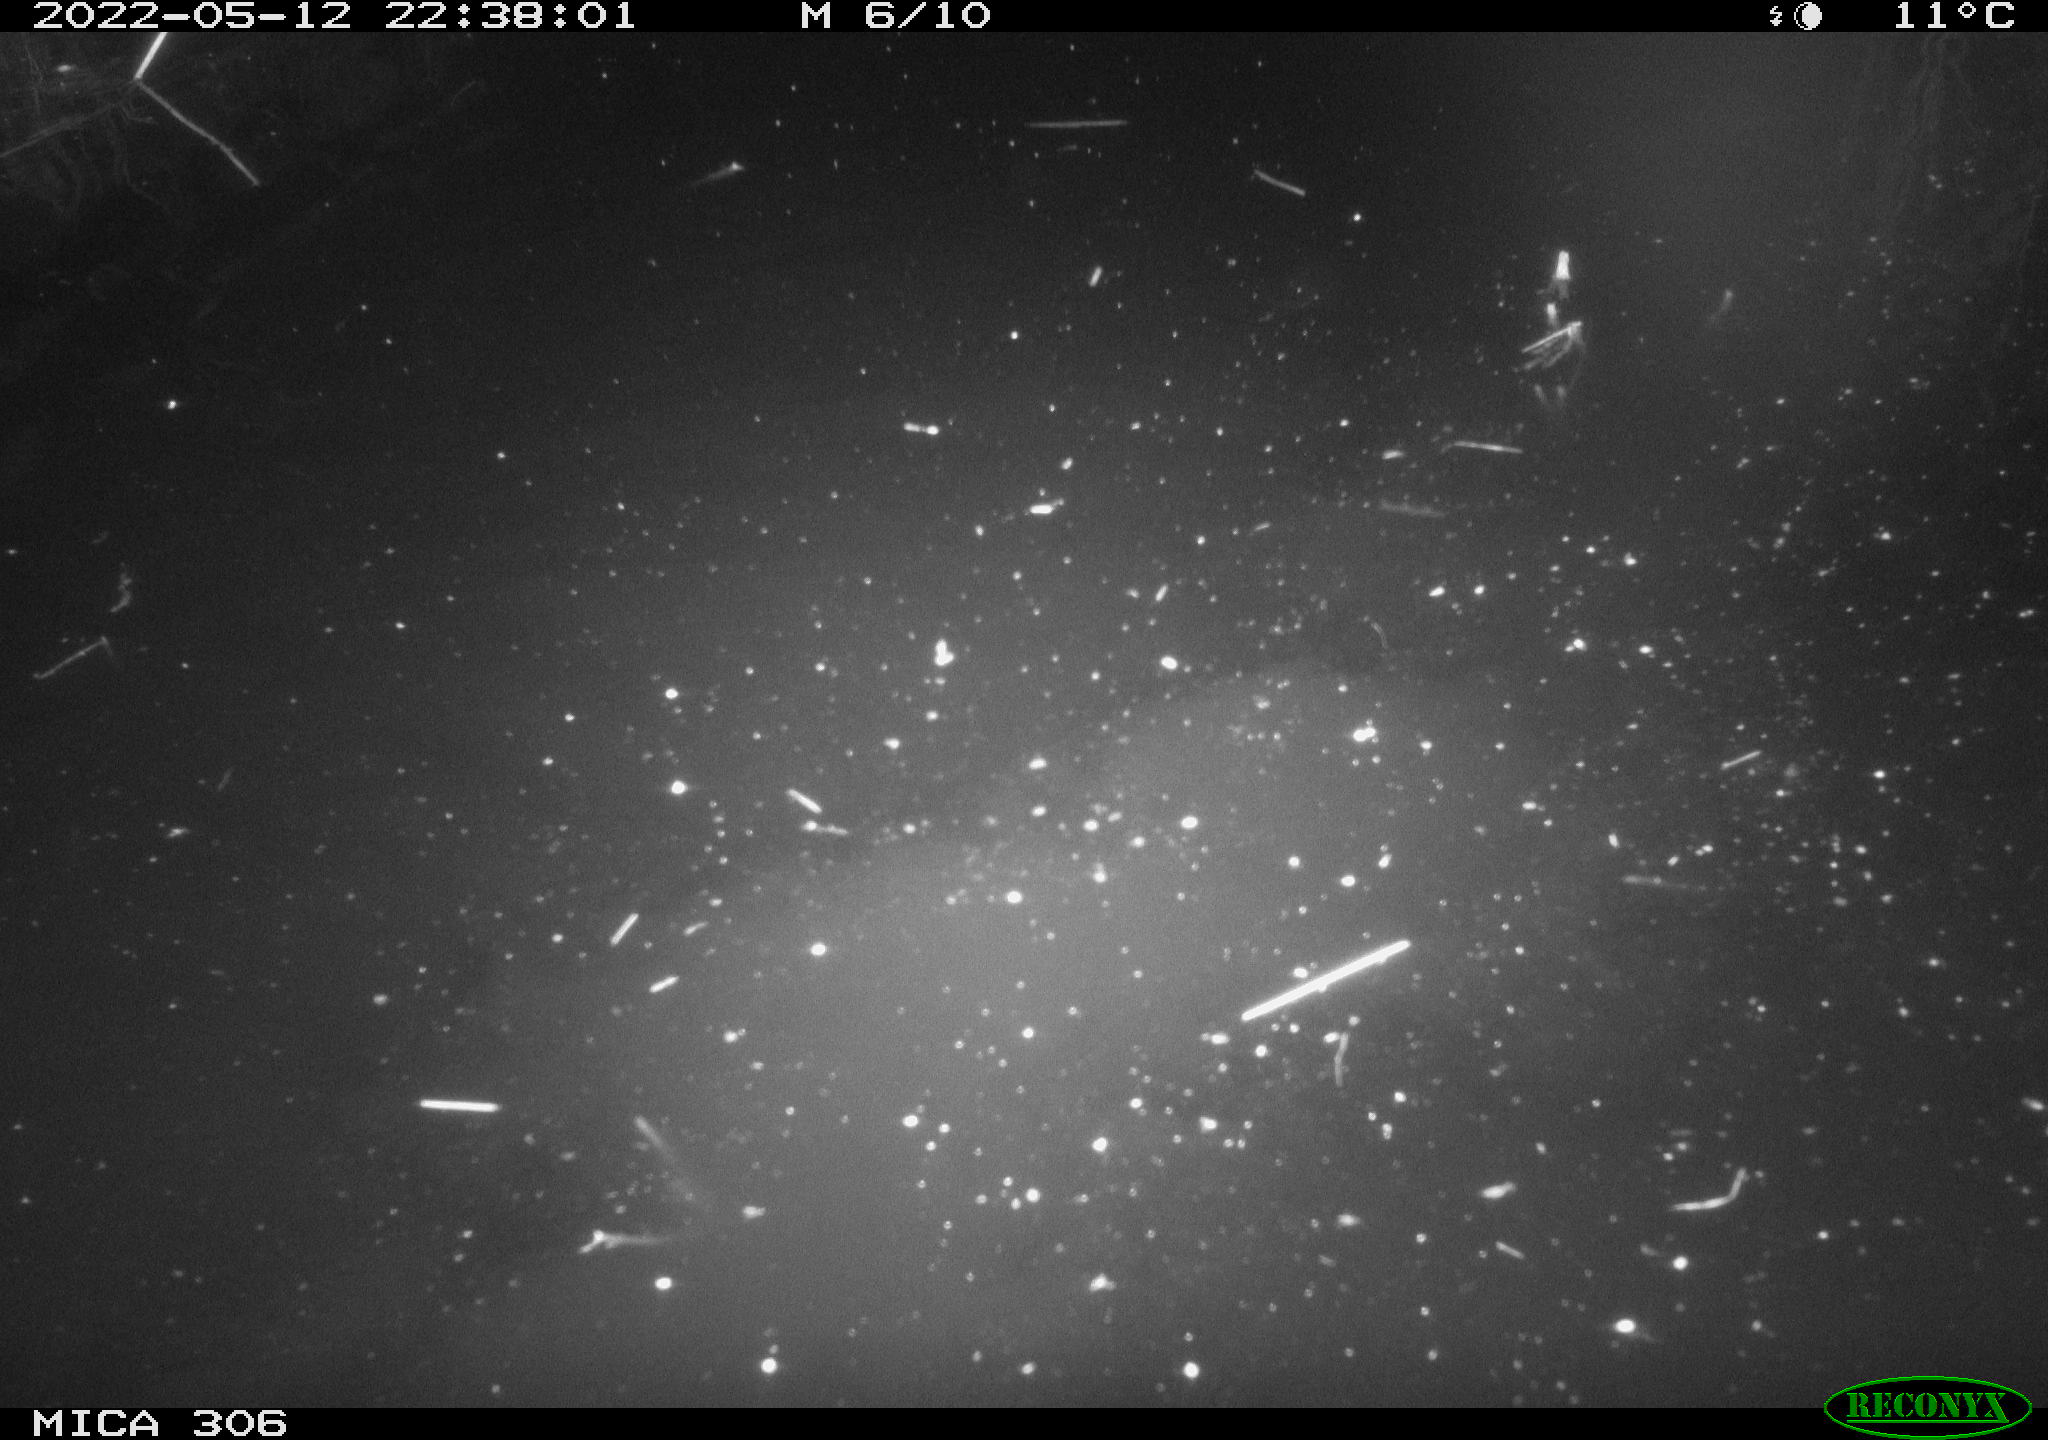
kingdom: Animalia
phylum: Chordata
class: Mammalia
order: Rodentia
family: Cricetidae
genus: Ondatra
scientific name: Ondatra zibethicus
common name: Muskrat
